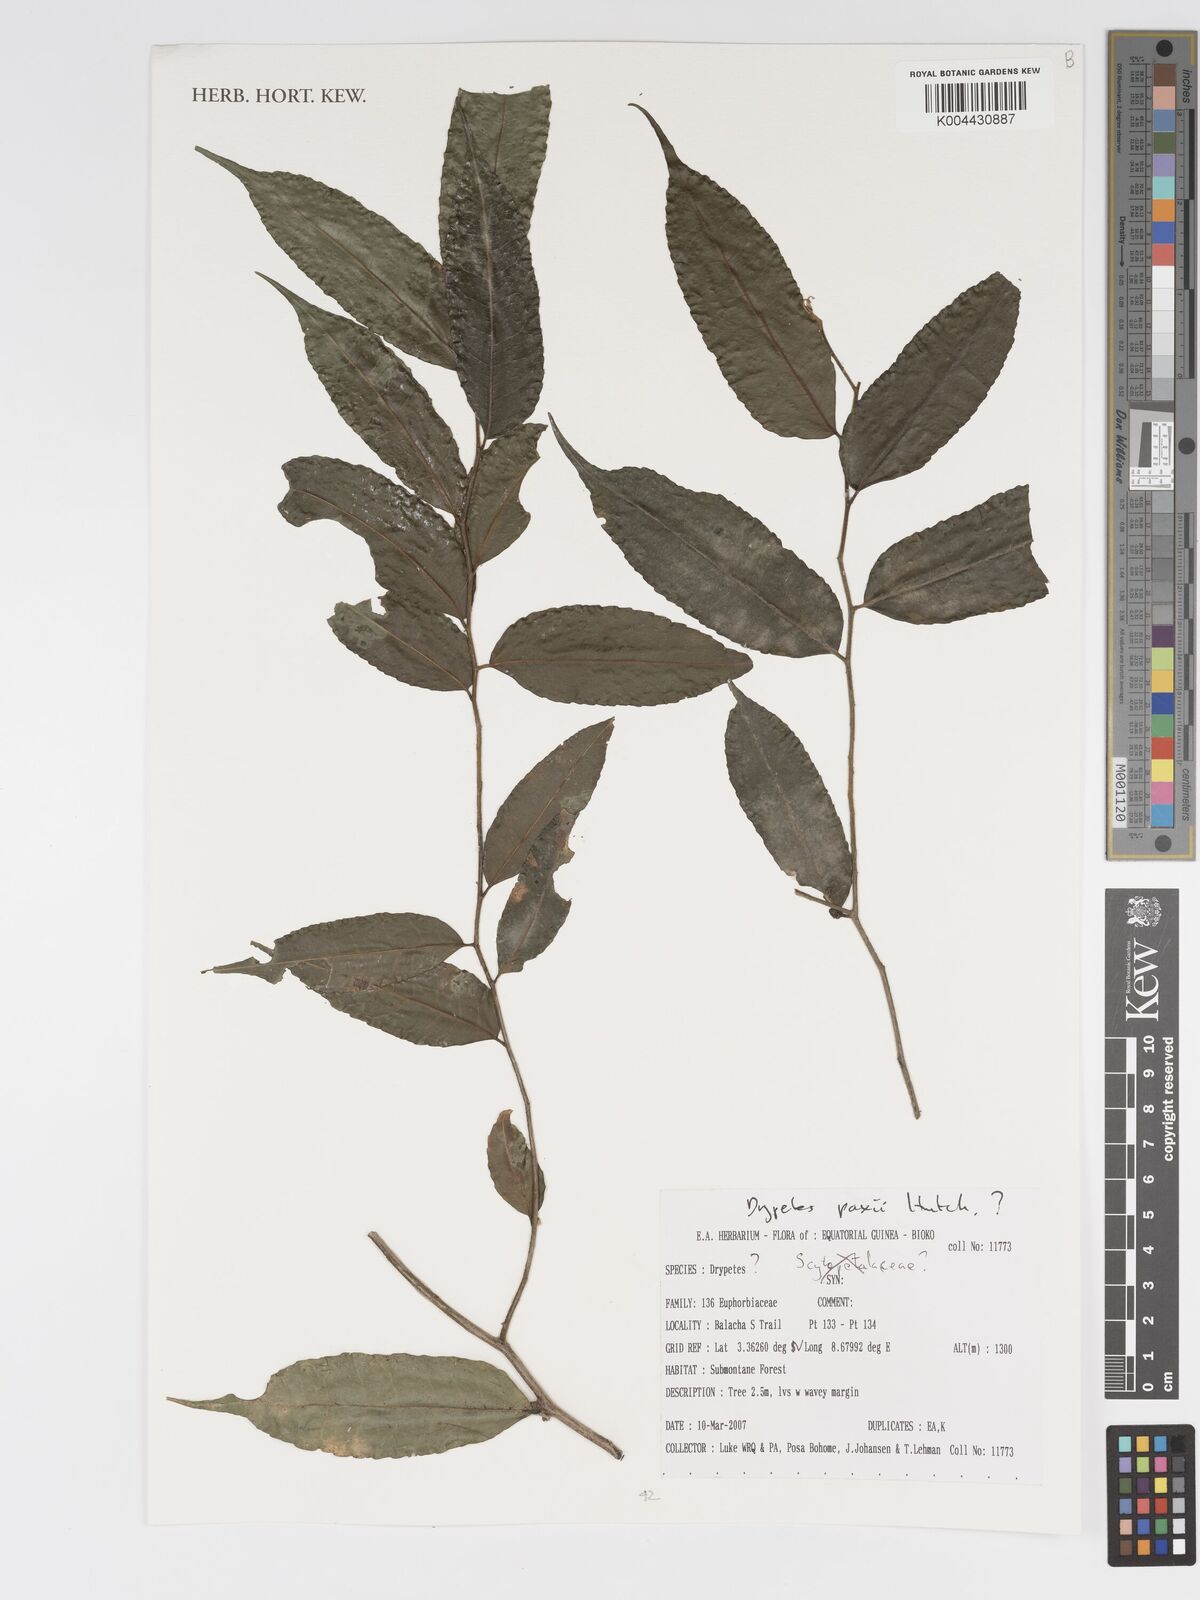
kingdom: Plantae
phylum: Tracheophyta
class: Magnoliopsida
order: Malpighiales
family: Putranjivaceae
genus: Drypetes
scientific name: Drypetes paxii
